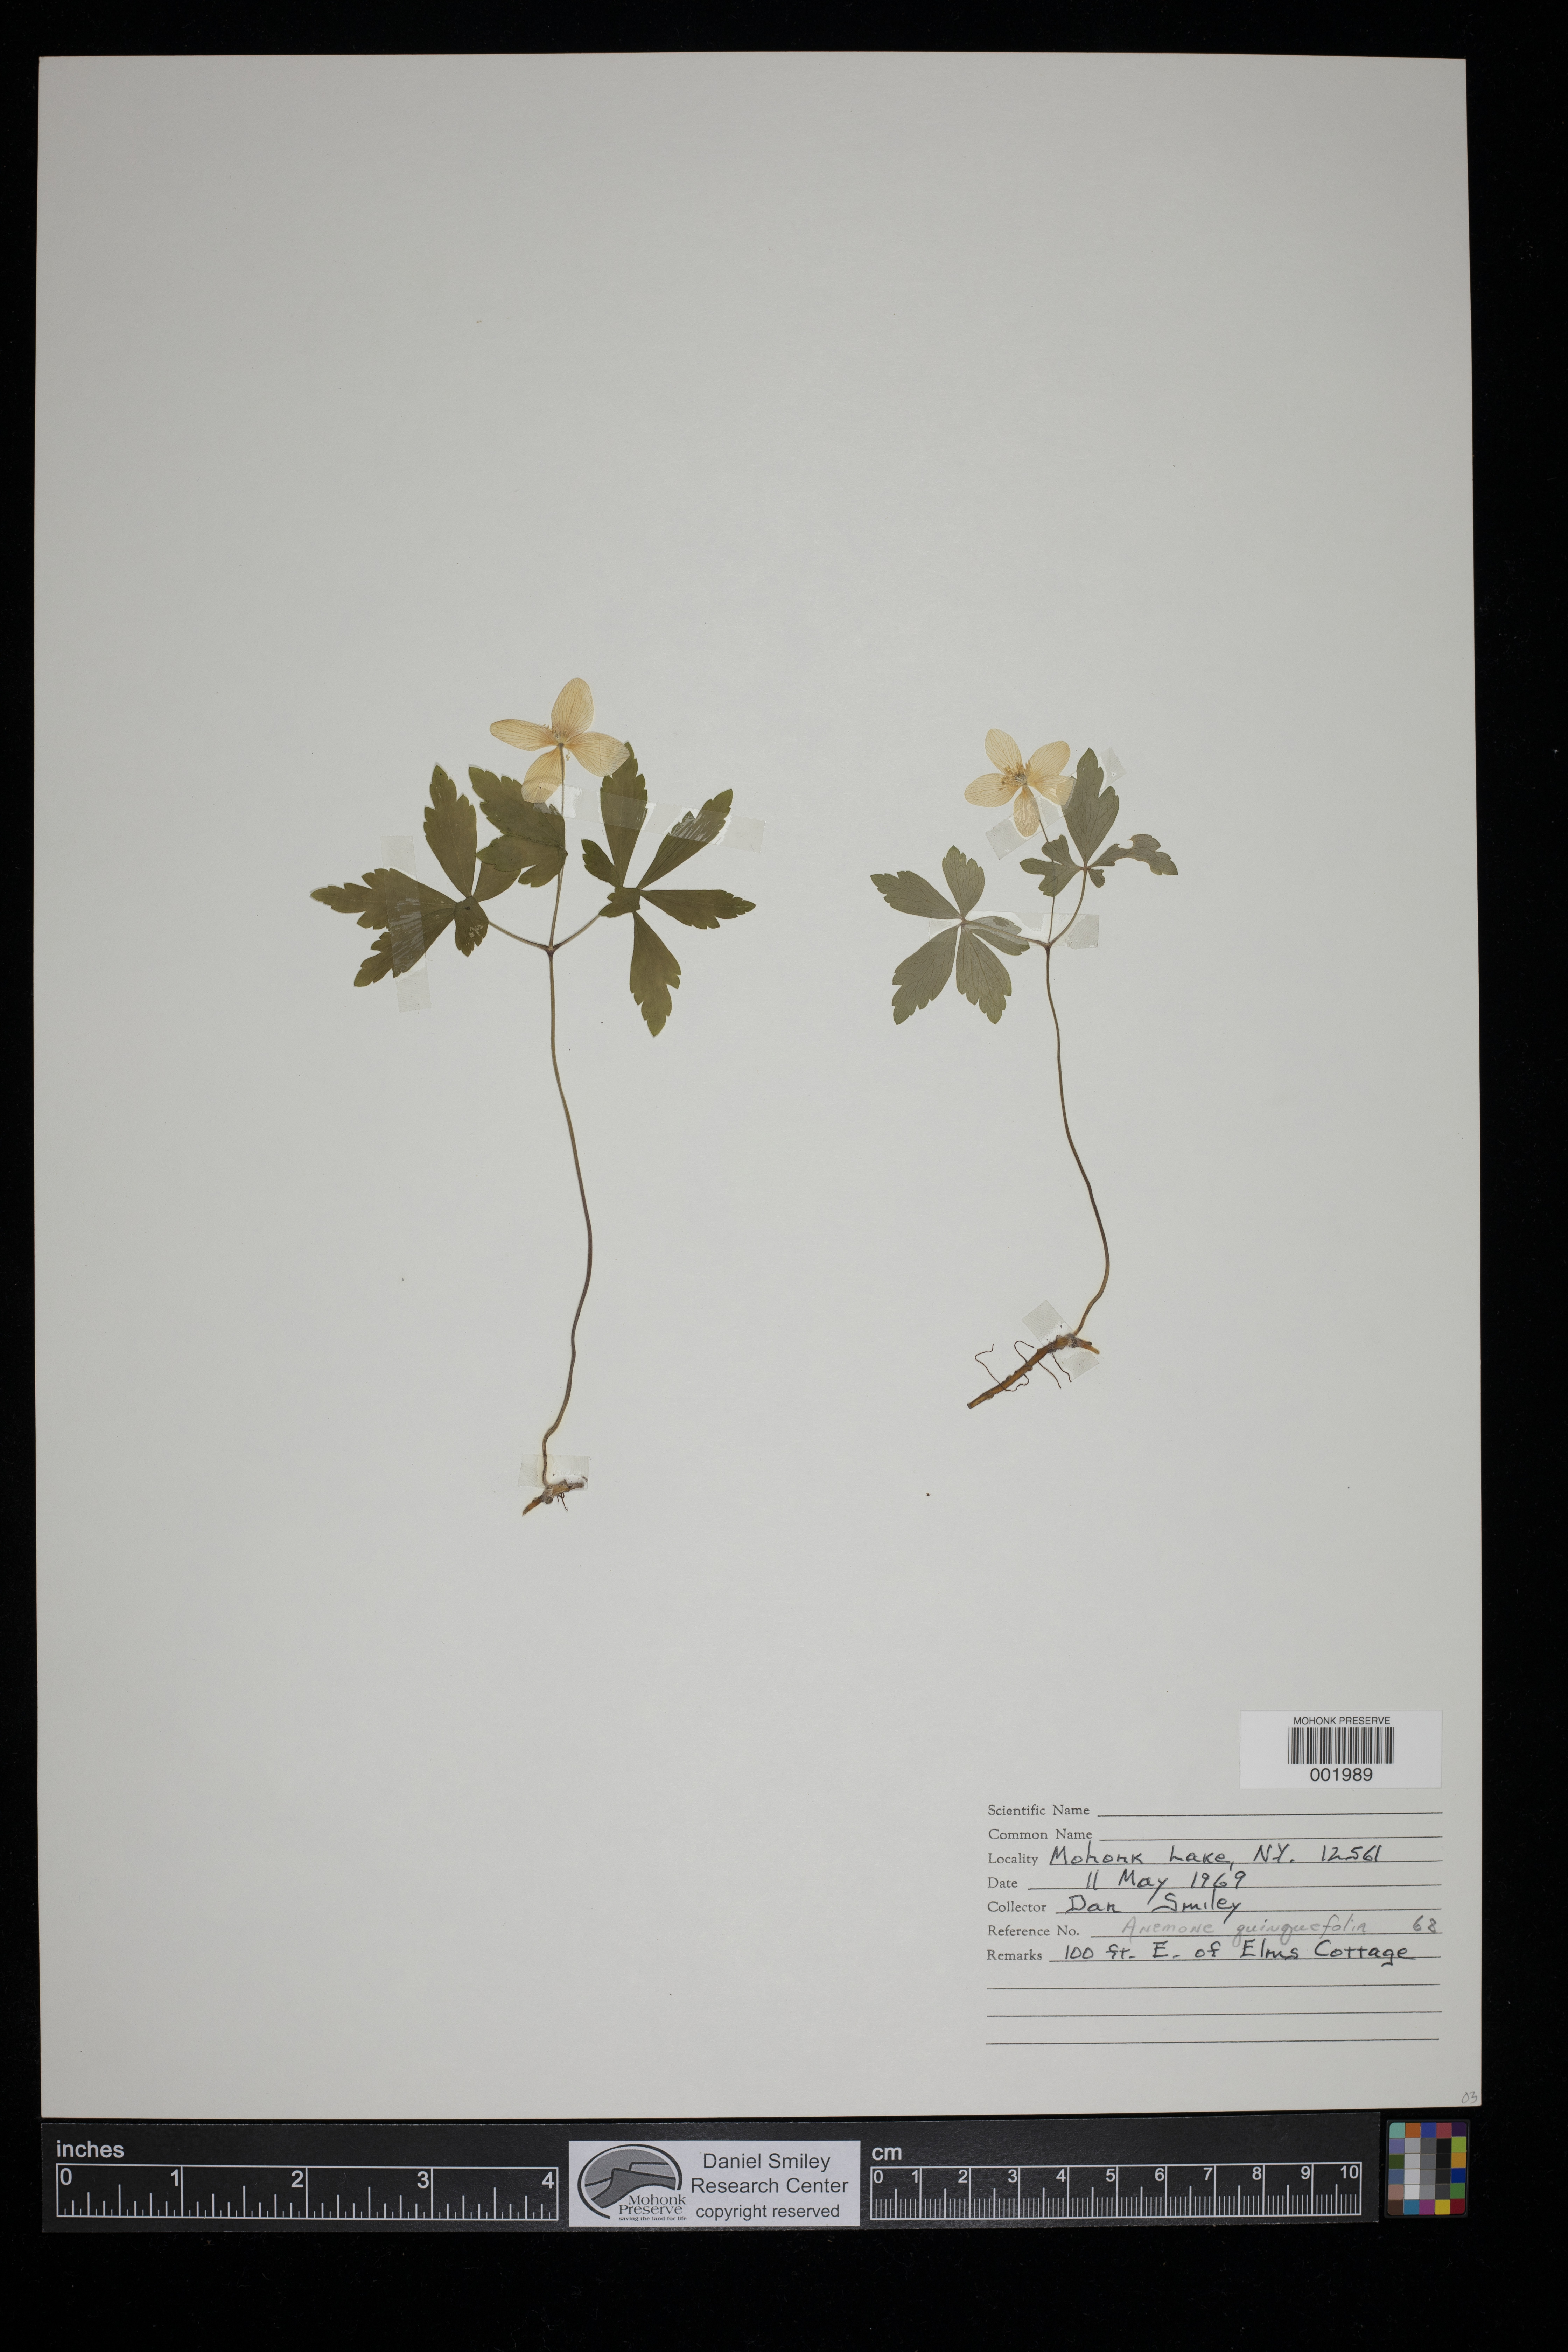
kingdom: Plantae
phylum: Tracheophyta
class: Magnoliopsida
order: Ranunculales
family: Ranunculaceae
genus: Anemone
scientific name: Anemone quinquefolia
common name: Wood anemone
